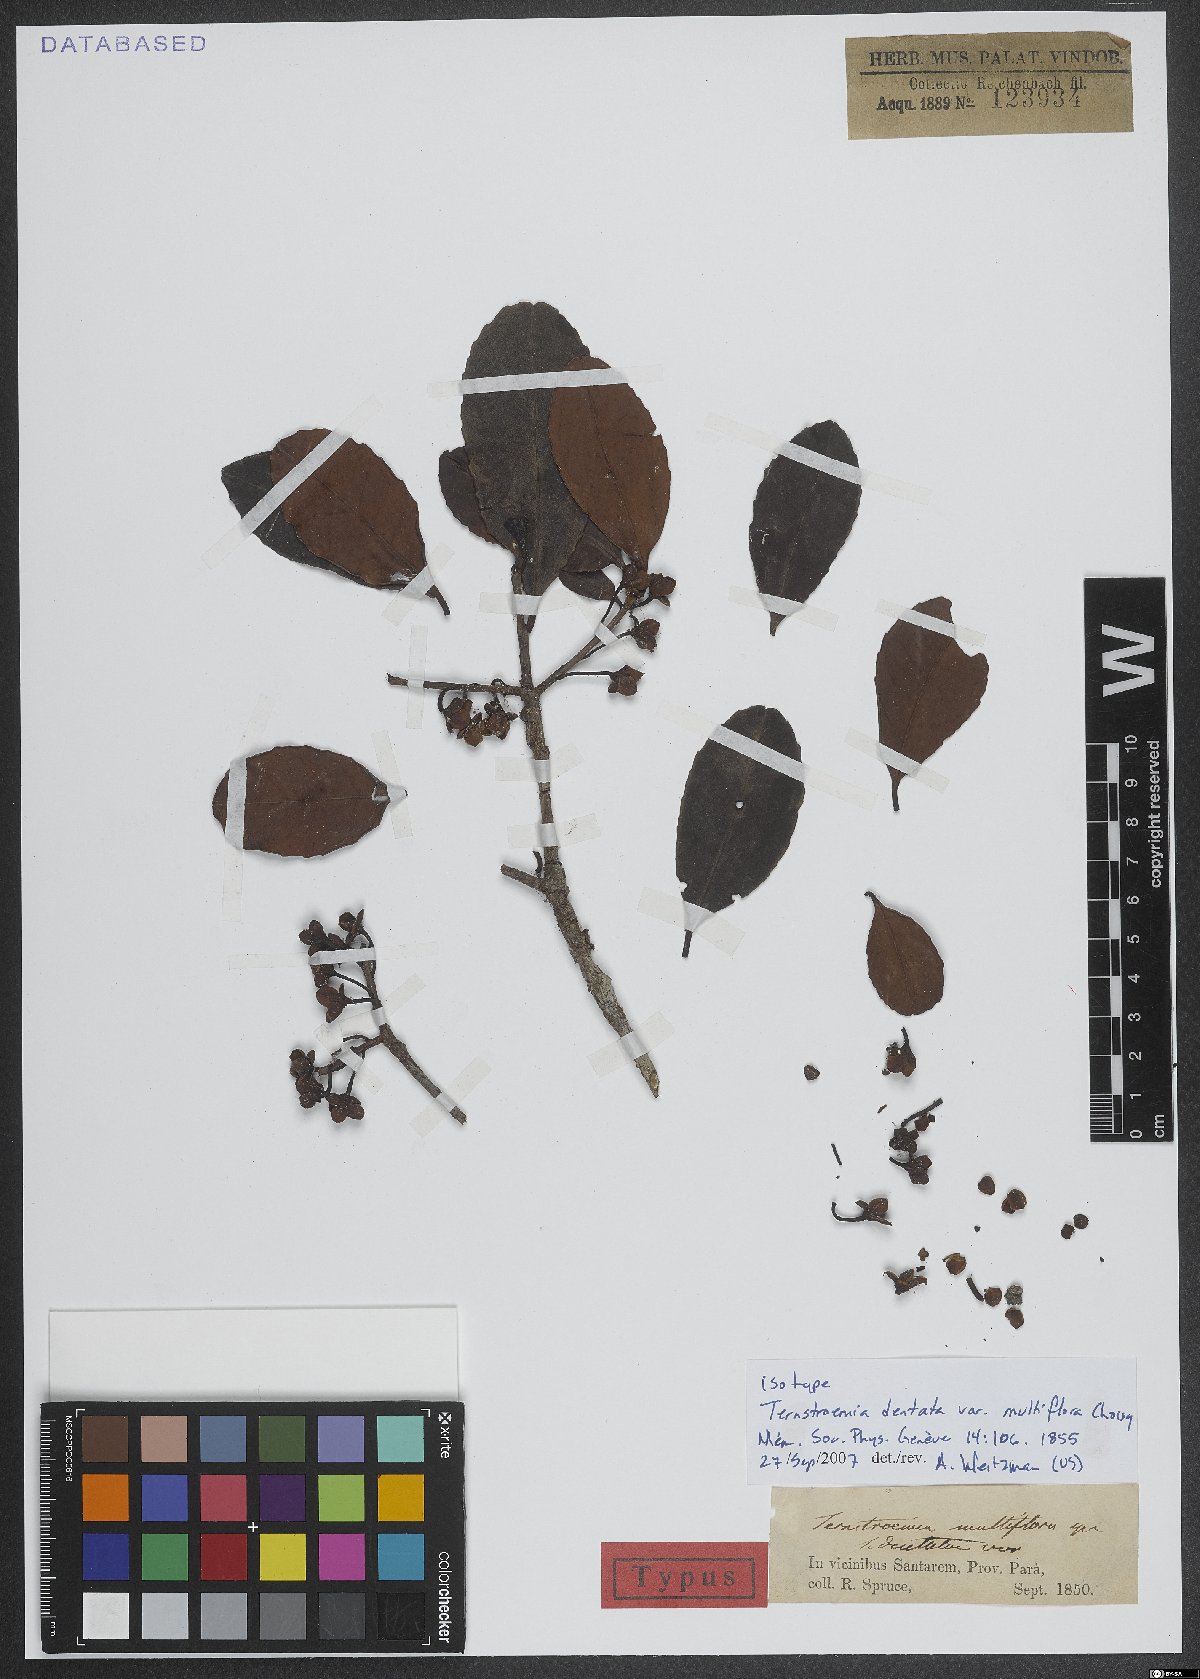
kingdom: Plantae
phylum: Tracheophyta
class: Magnoliopsida
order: Ericales
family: Pentaphylacaceae
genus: Ternstroemia
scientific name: Ternstroemia dentata
